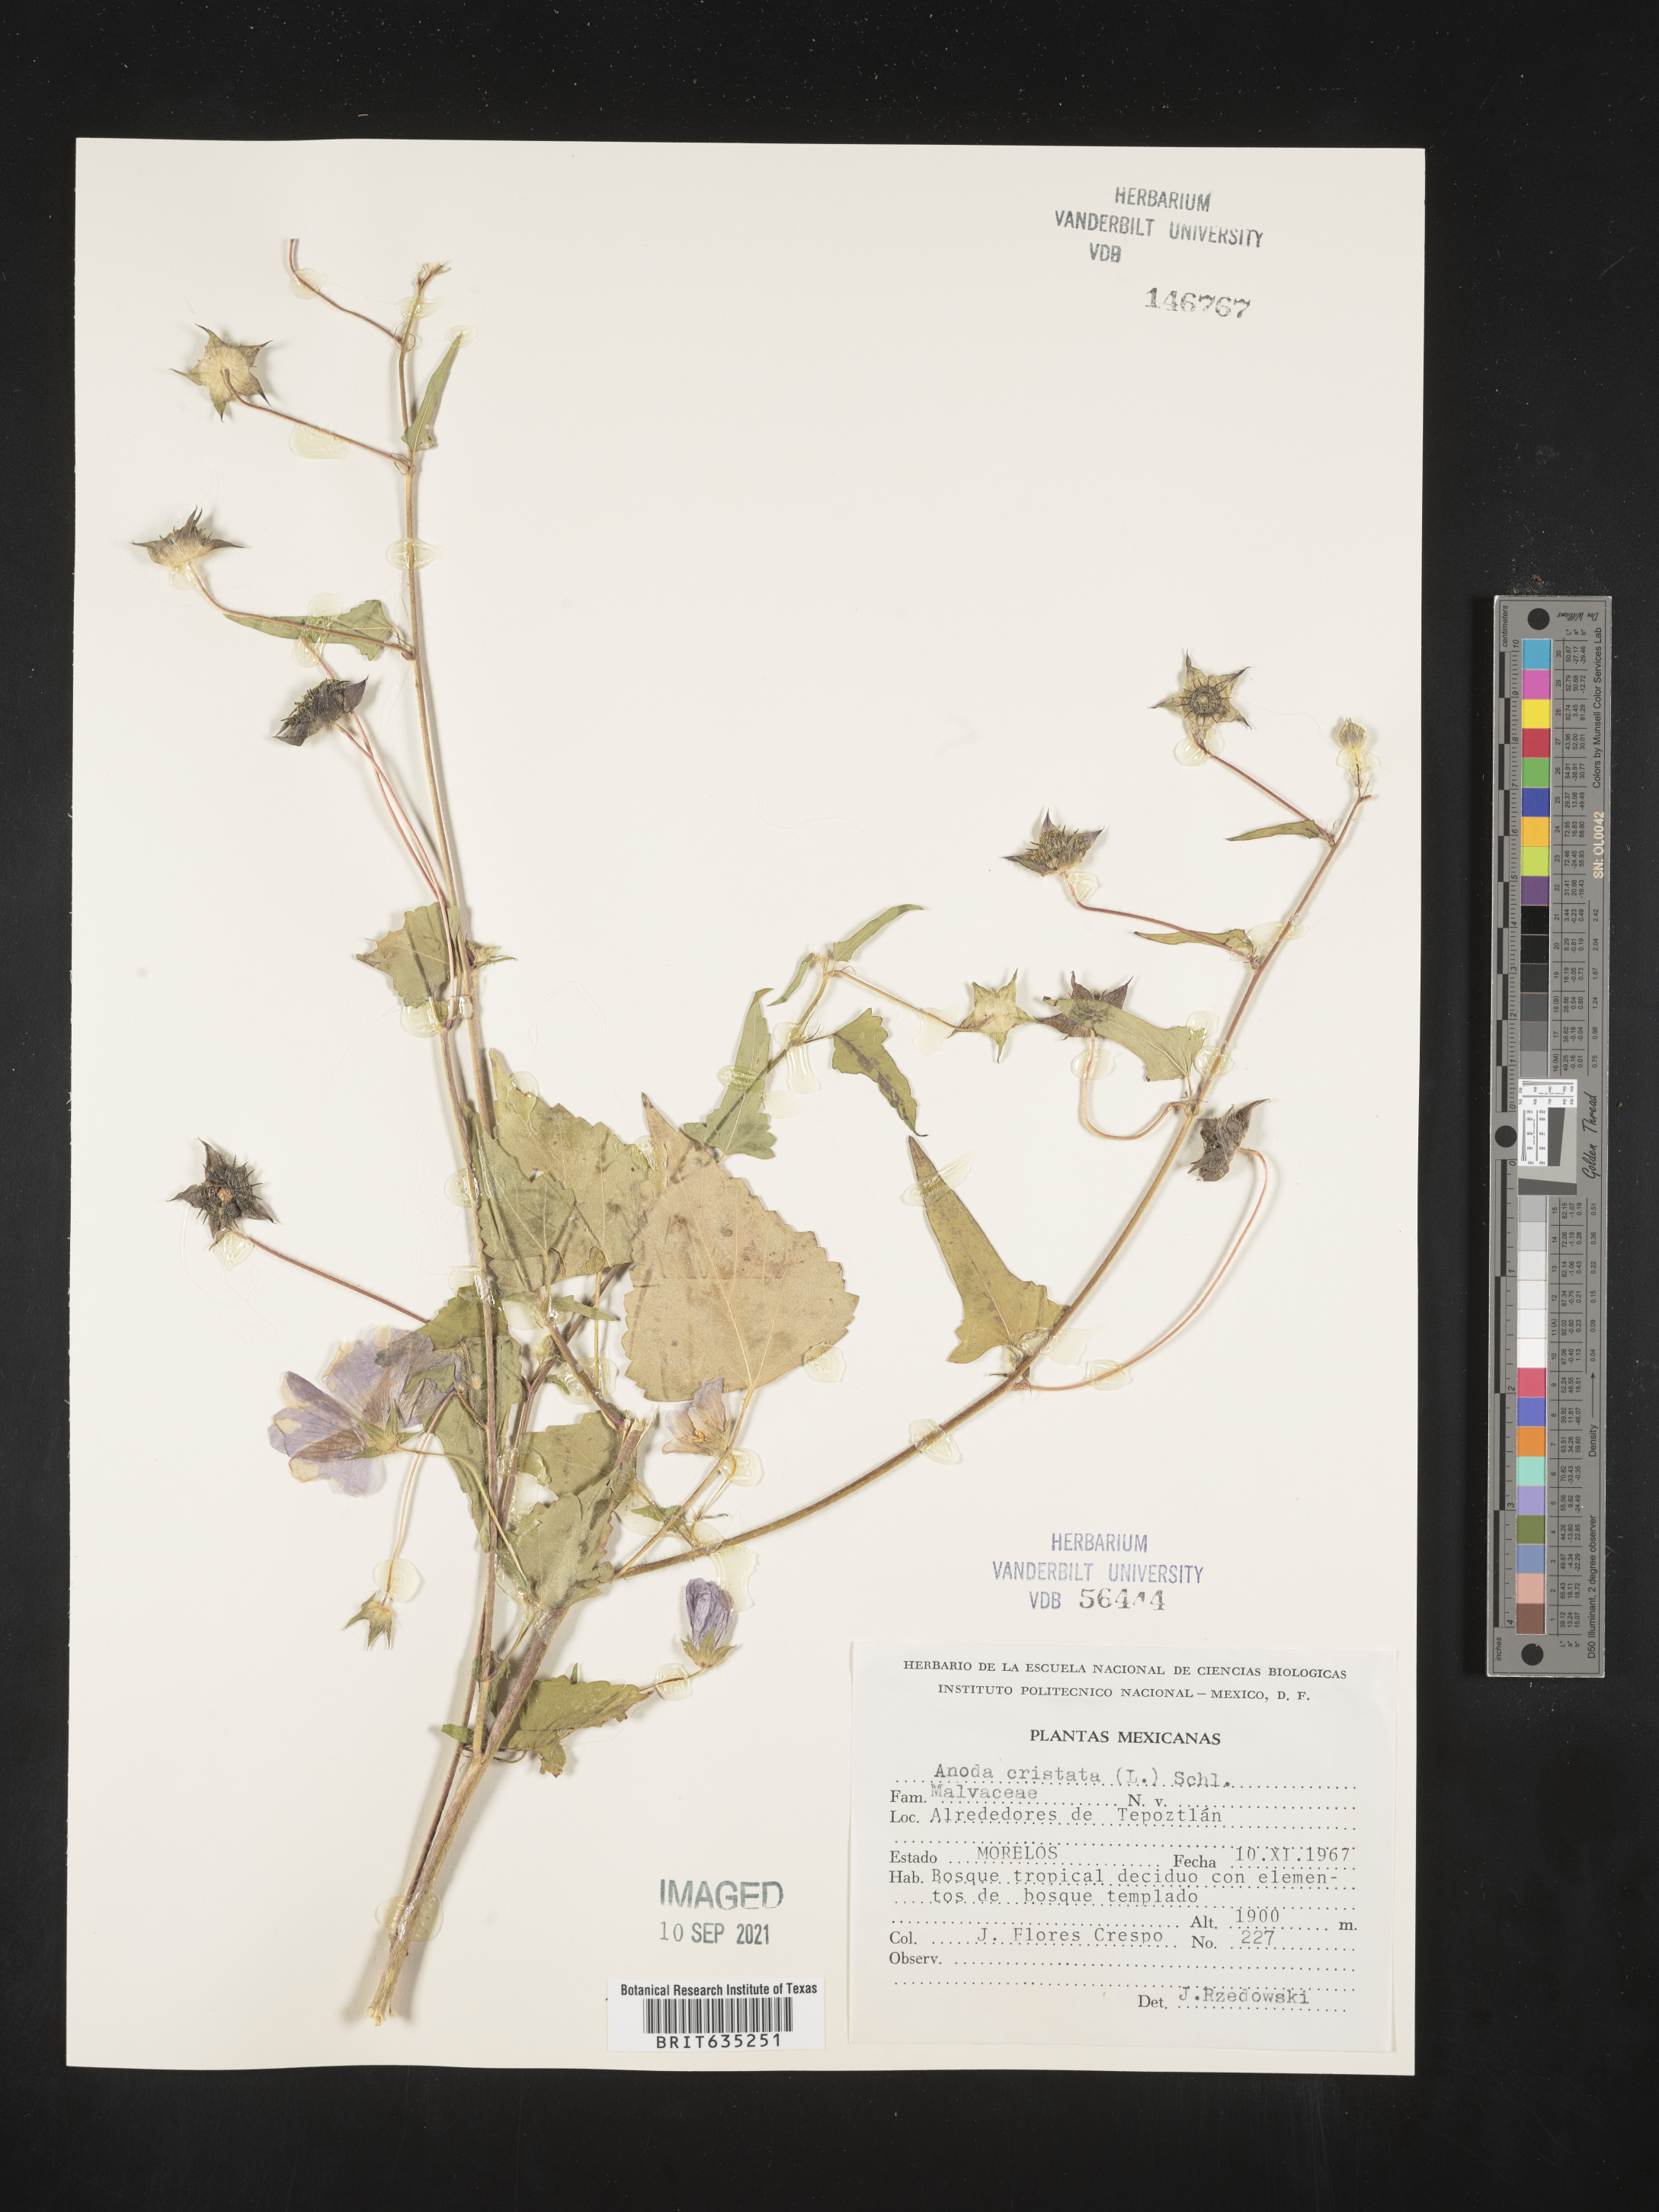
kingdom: Plantae
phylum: Tracheophyta
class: Magnoliopsida
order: Malvales
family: Malvaceae
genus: Anoda
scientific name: Anoda
